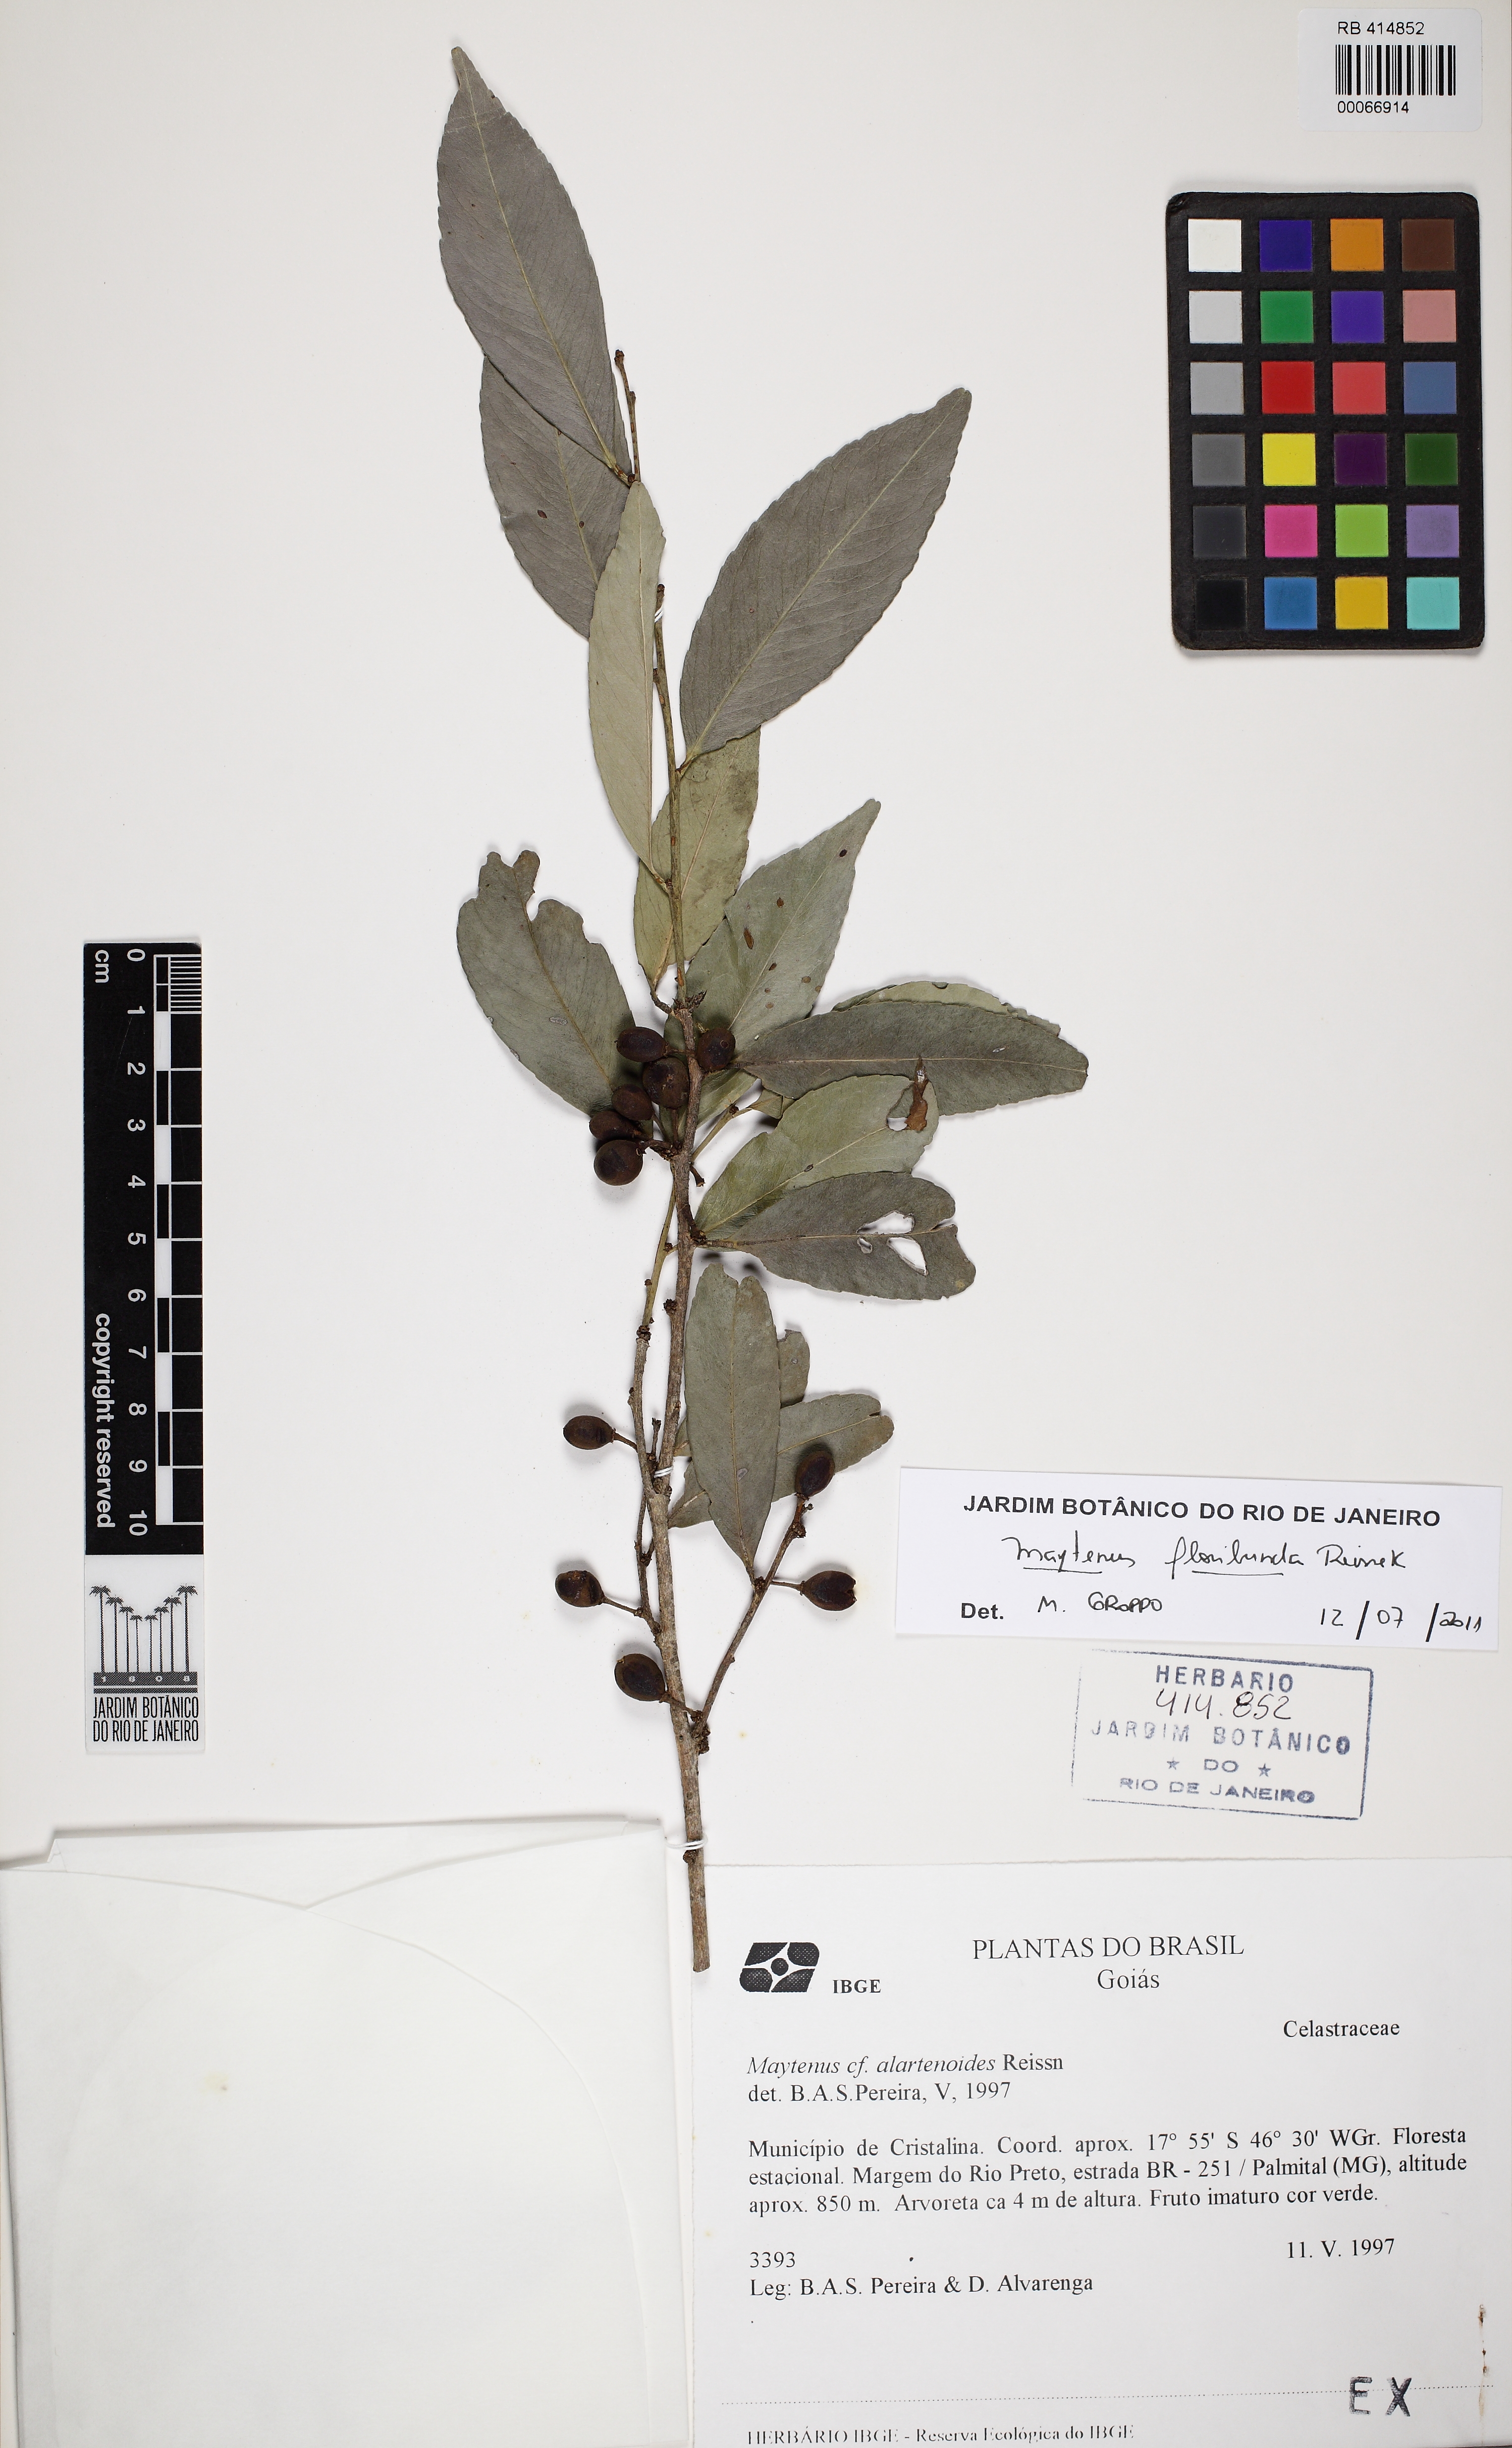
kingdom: Plantae
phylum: Tracheophyta
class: Magnoliopsida
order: Celastrales
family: Celastraceae
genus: Monteverdia
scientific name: Monteverdia floribunda
